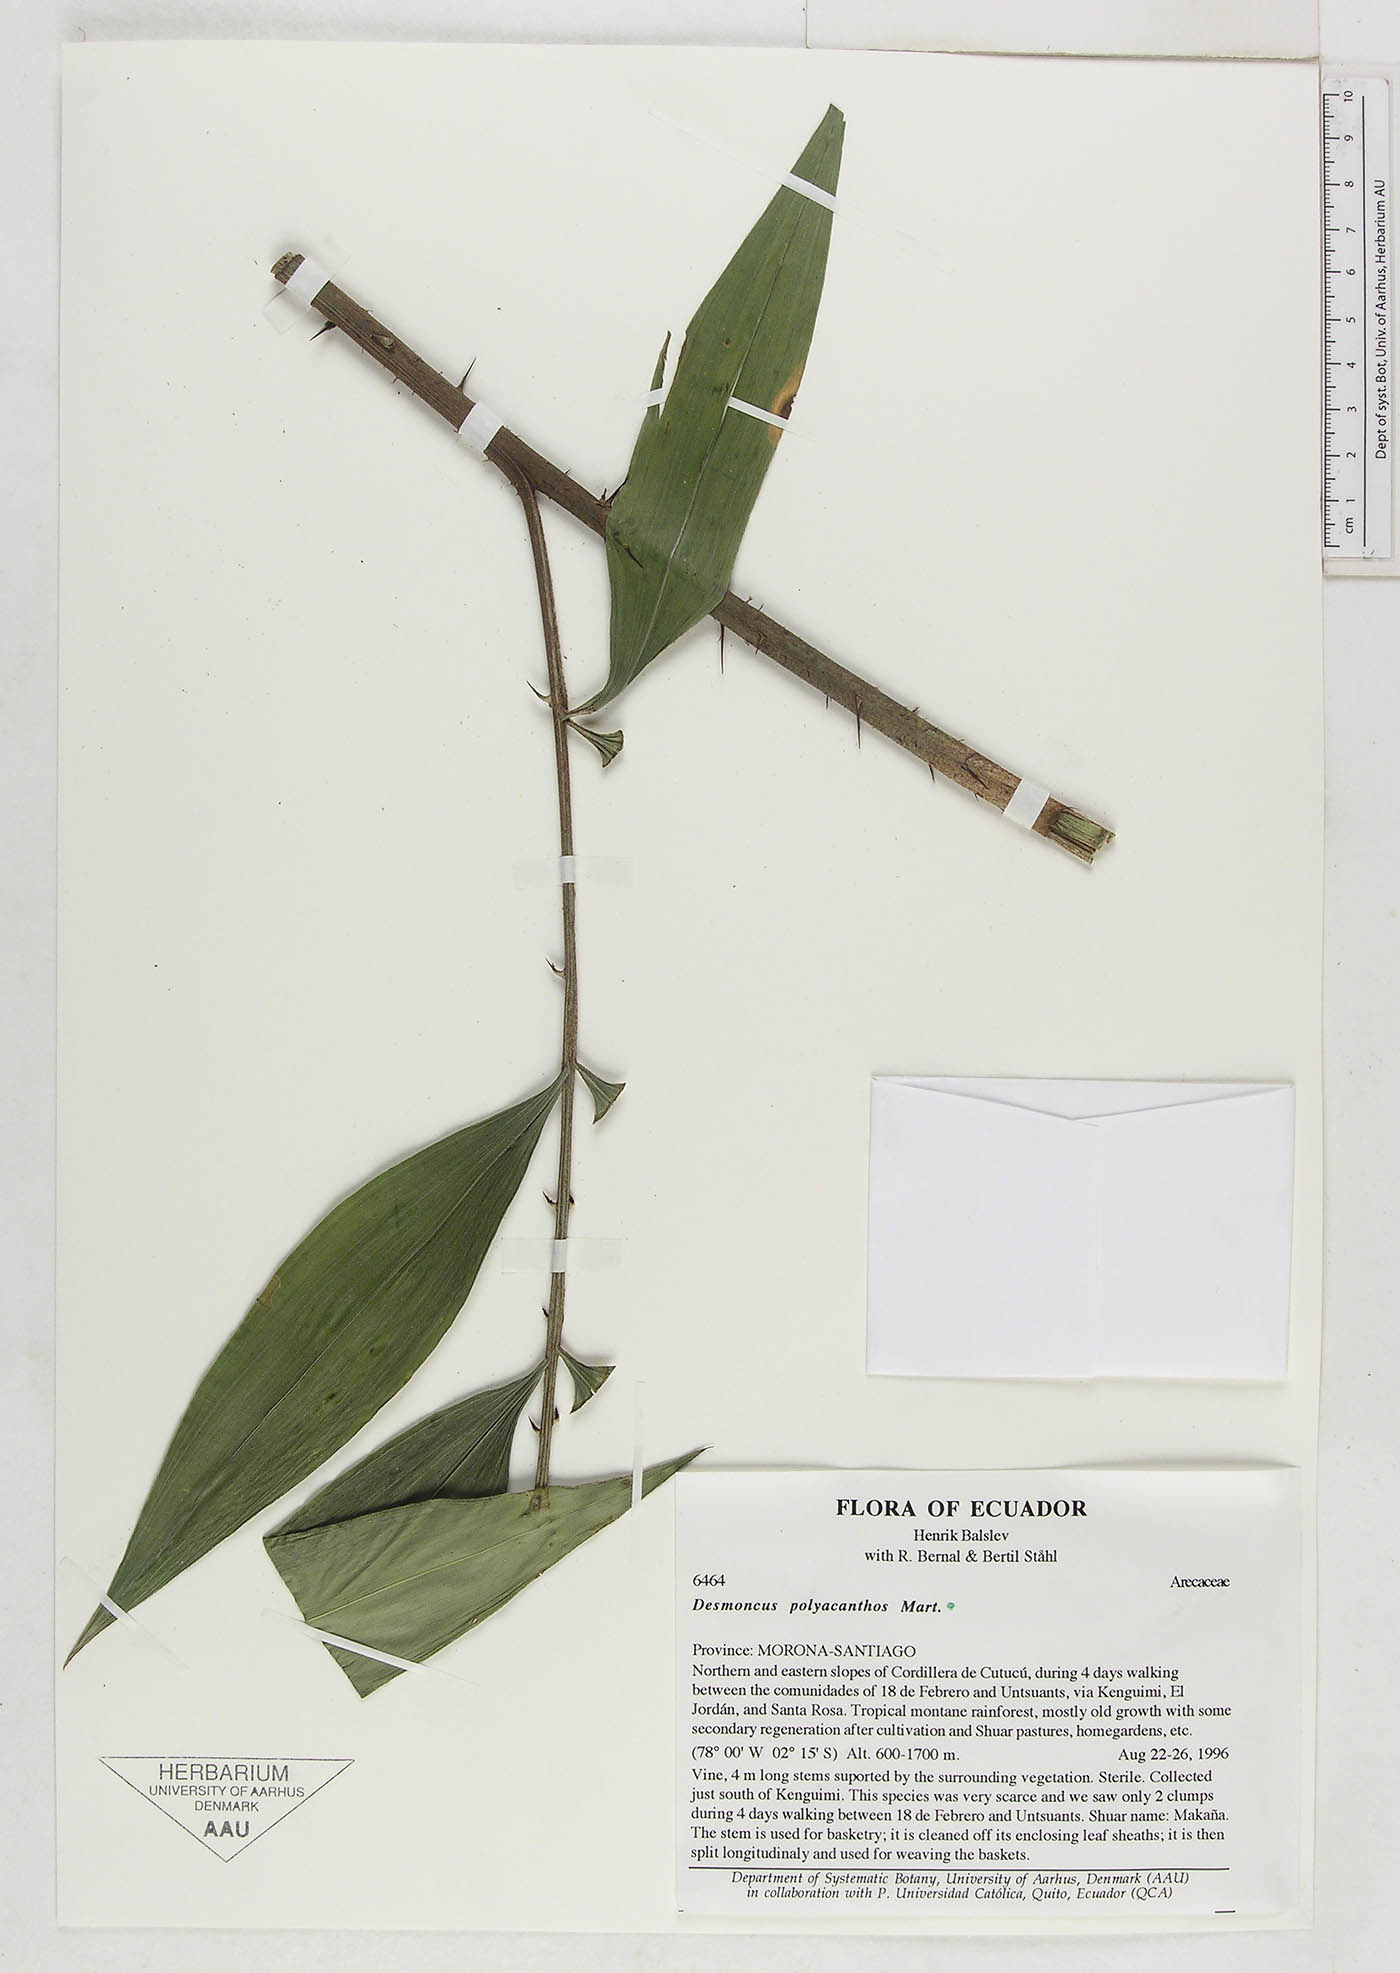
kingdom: Plantae
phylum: Tracheophyta
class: Liliopsida
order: Arecales
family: Arecaceae
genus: Desmoncus
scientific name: Desmoncus prunifer
